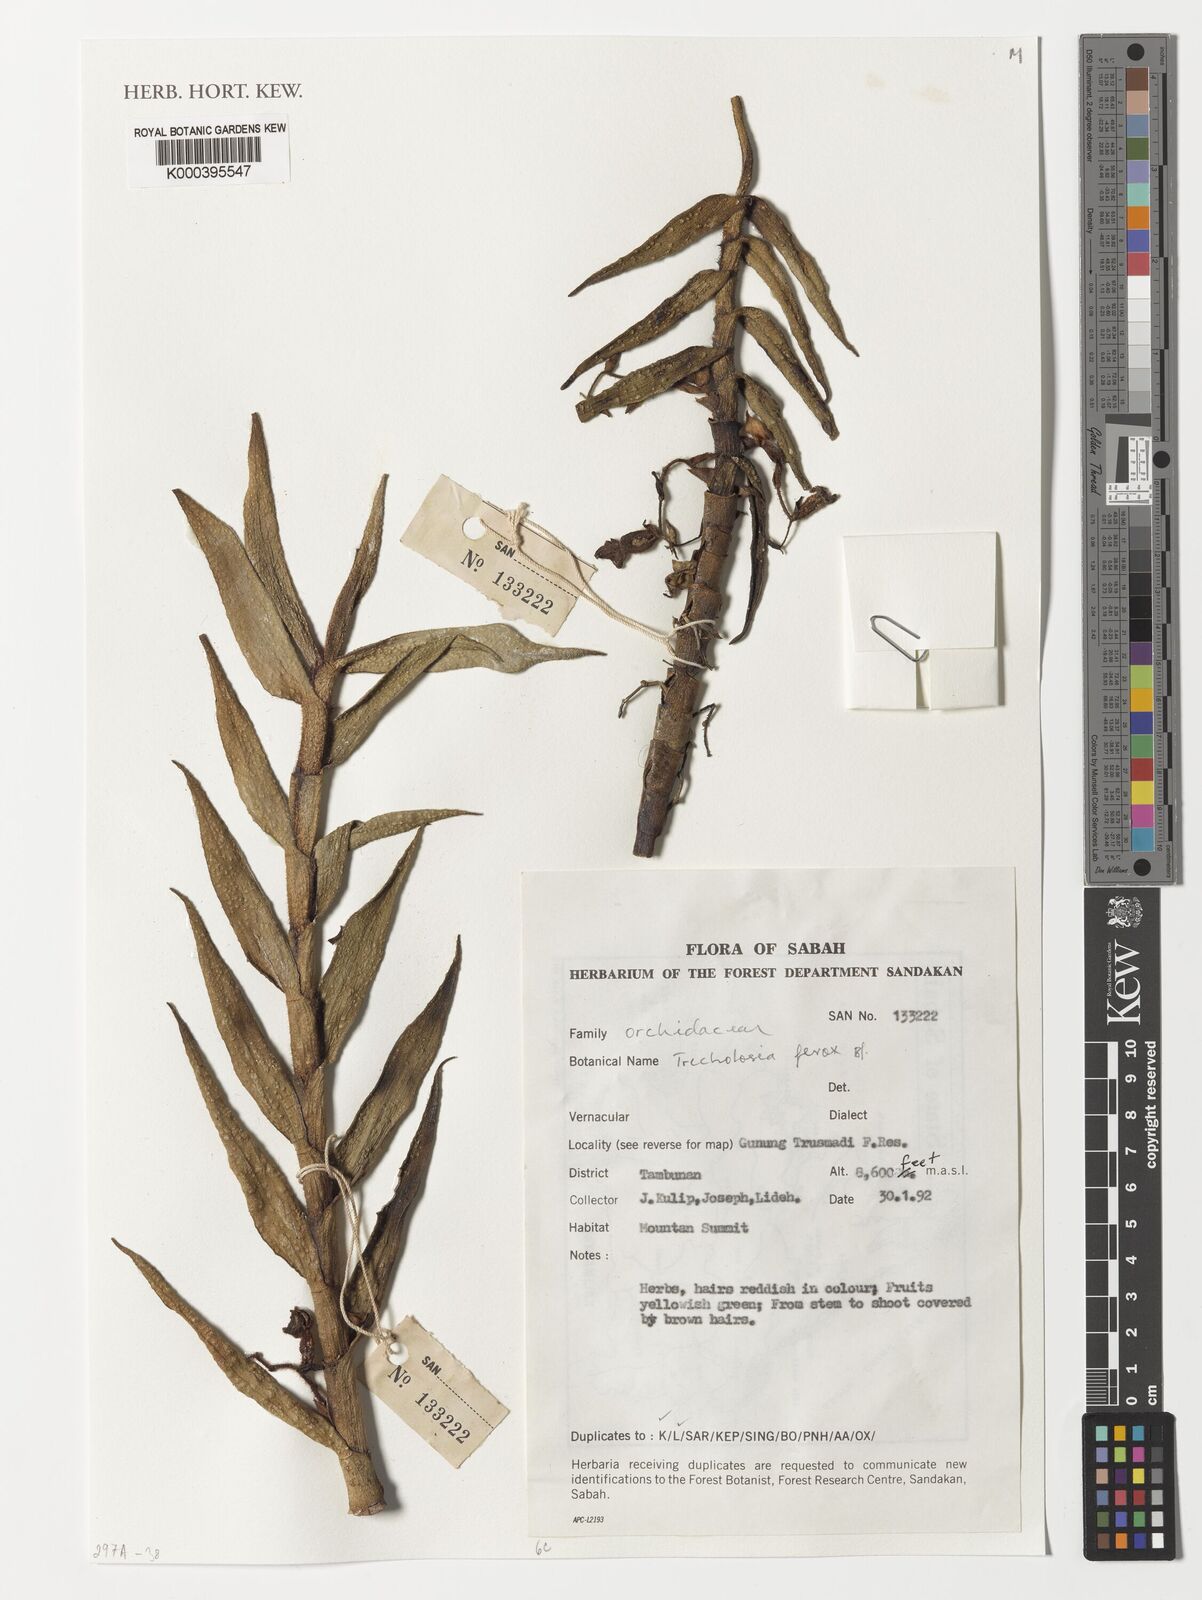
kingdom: Plantae
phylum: Tracheophyta
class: Liliopsida
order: Asparagales
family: Orchidaceae
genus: Trichotosia
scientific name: Trichotosia ferox
